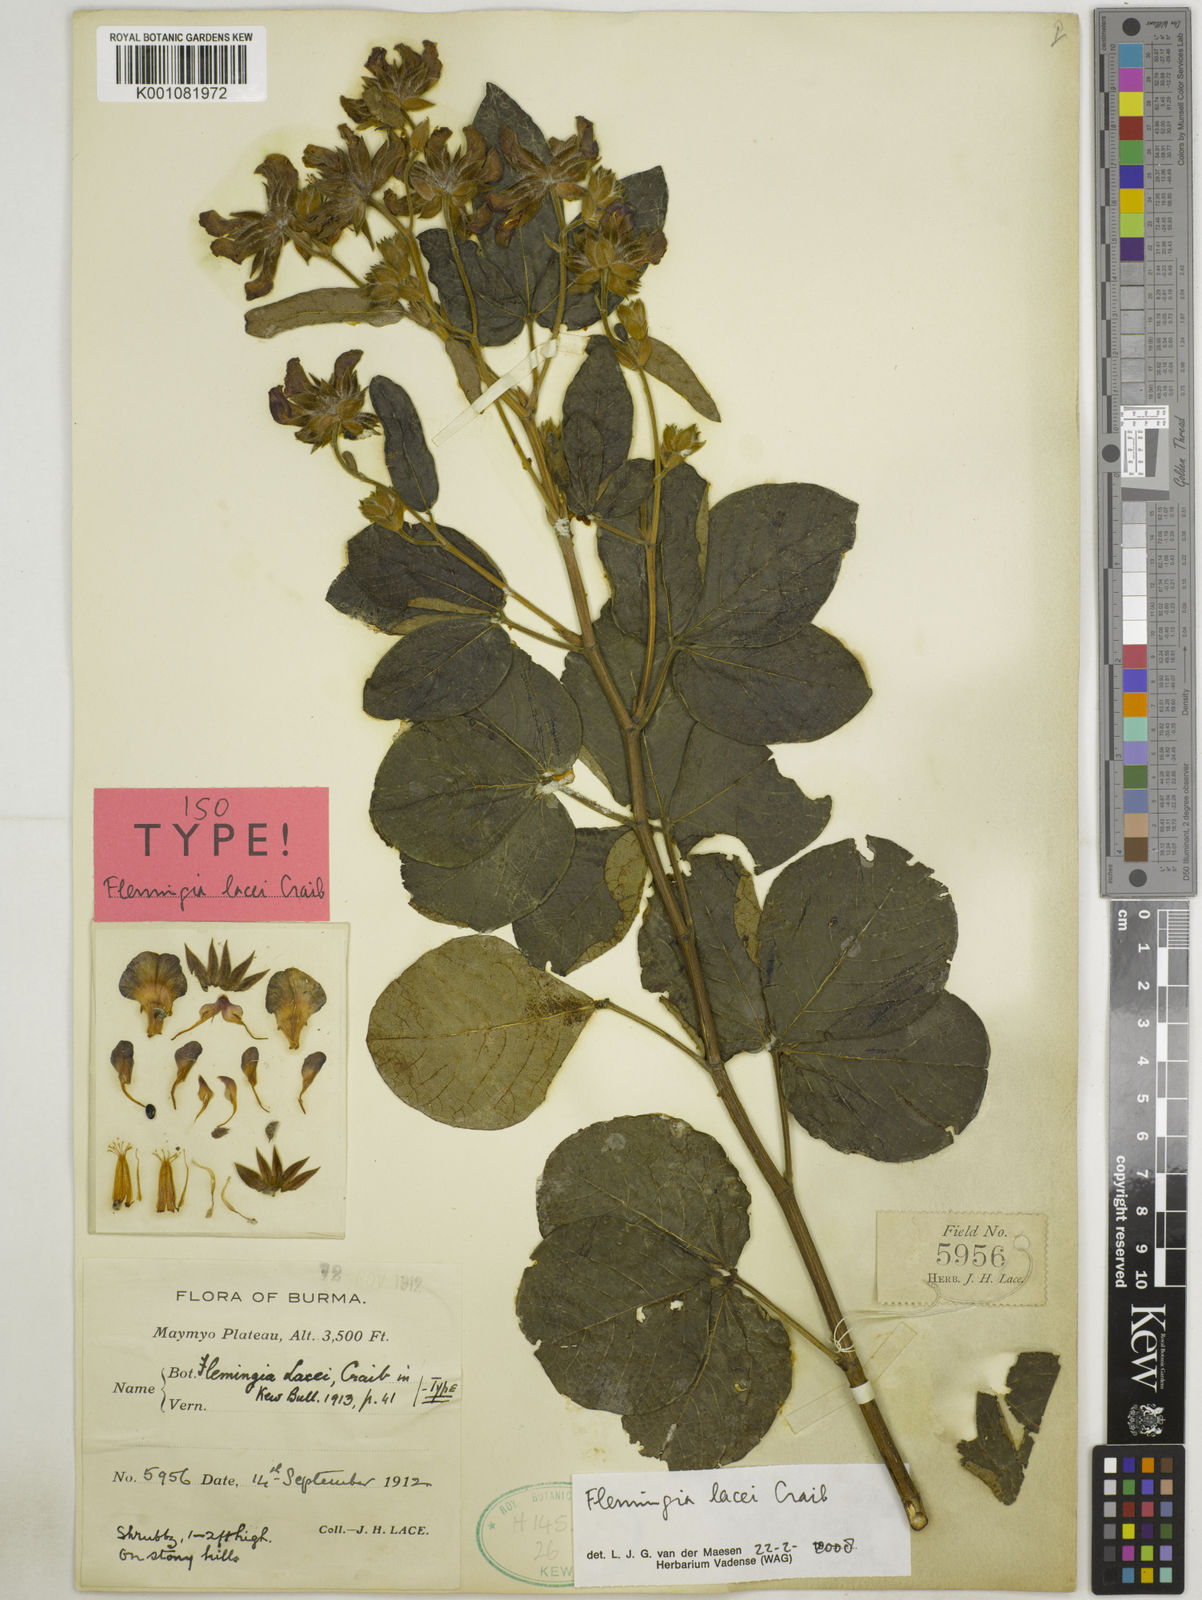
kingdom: Plantae
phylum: Tracheophyta
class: Magnoliopsida
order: Fabales
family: Fabaceae
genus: Flemingia
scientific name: Flemingia lacei
